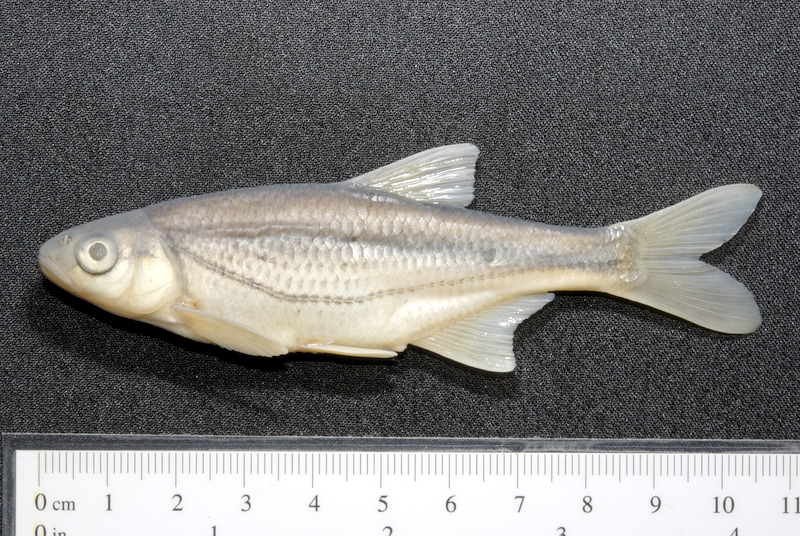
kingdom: Animalia
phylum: Chordata
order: Cypriniformes
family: Cyprinidae
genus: Alburnoides
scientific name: Alburnoides bipunctatus
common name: Spirlin
